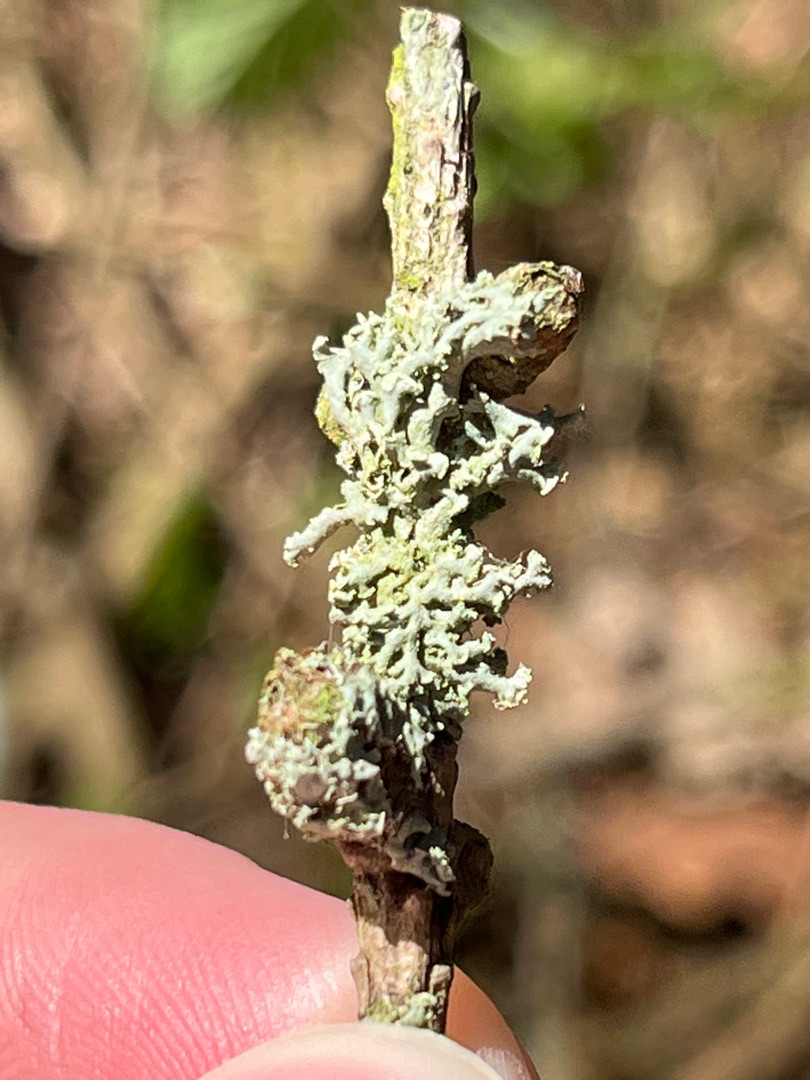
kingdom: Fungi
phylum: Ascomycota
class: Lecanoromycetes
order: Caliciales
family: Physciaceae
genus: Physcia
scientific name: Physcia tenella
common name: Spæd rosetlav
